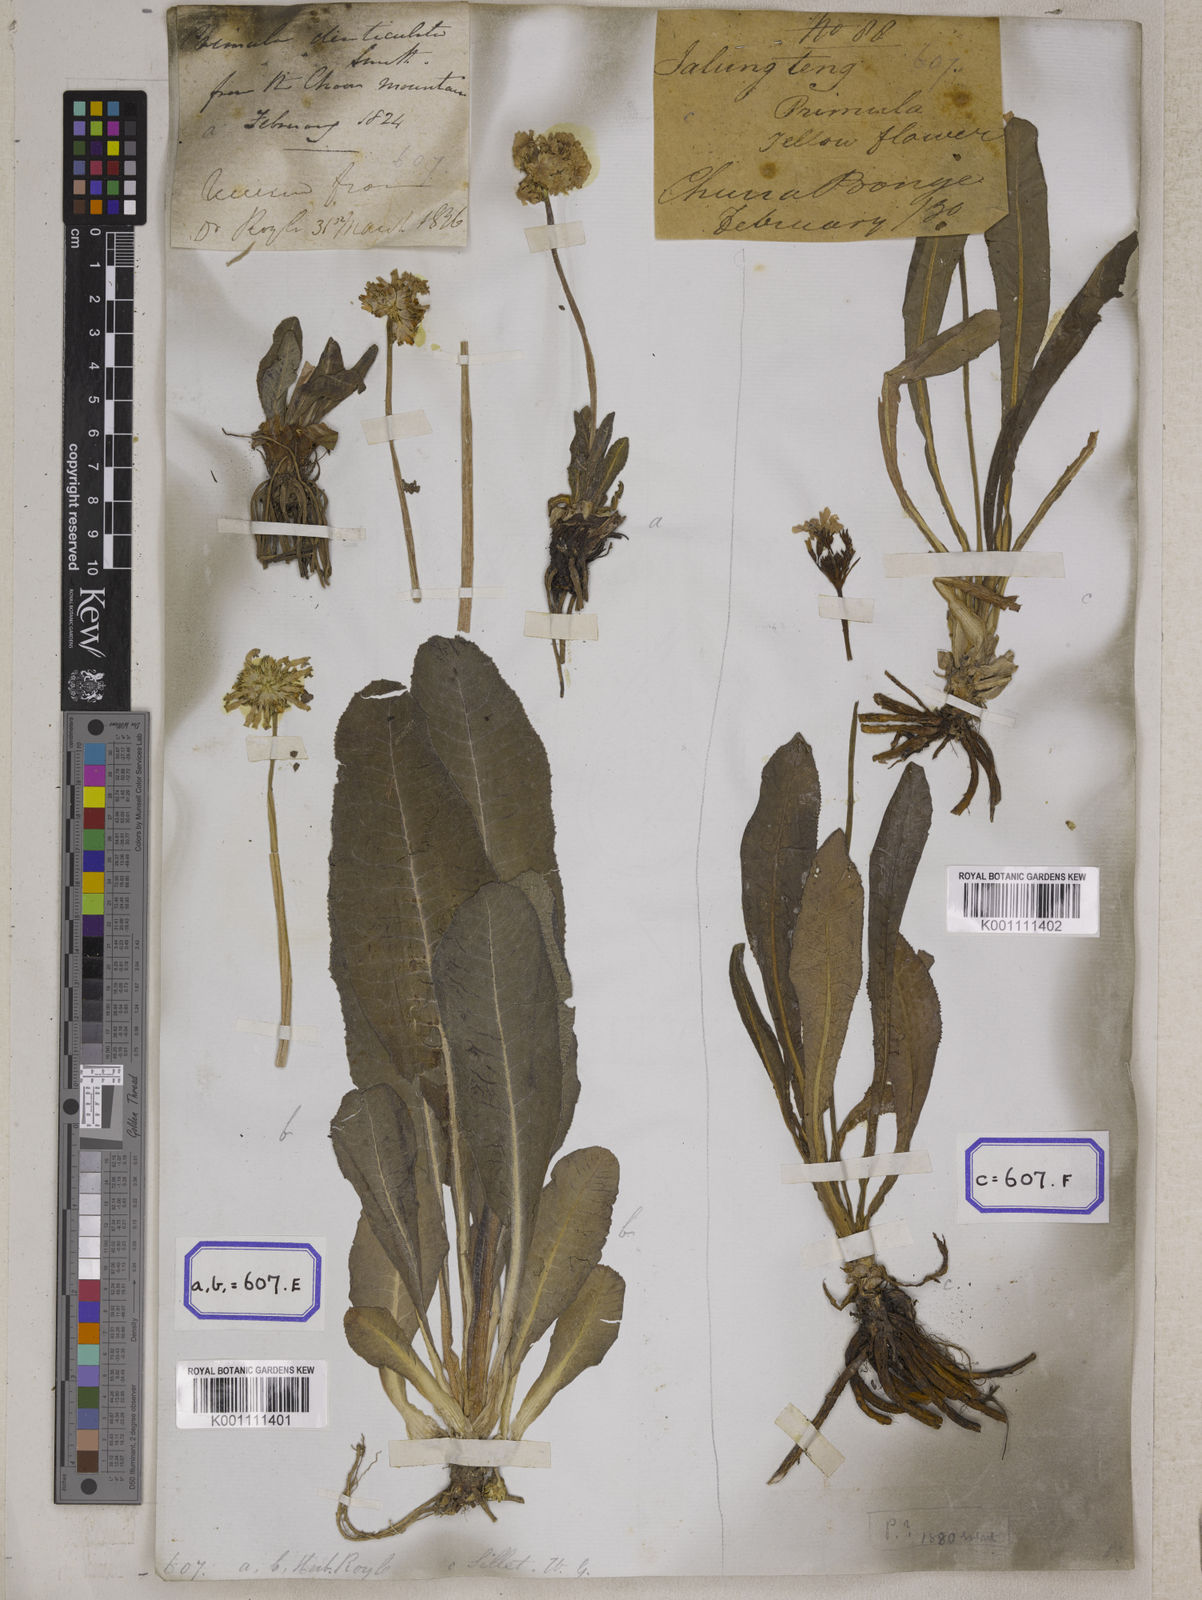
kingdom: Plantae
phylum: Tracheophyta
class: Magnoliopsida
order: Ericales
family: Primulaceae
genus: Primula
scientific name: Primula denticulata
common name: Drumstick primula
